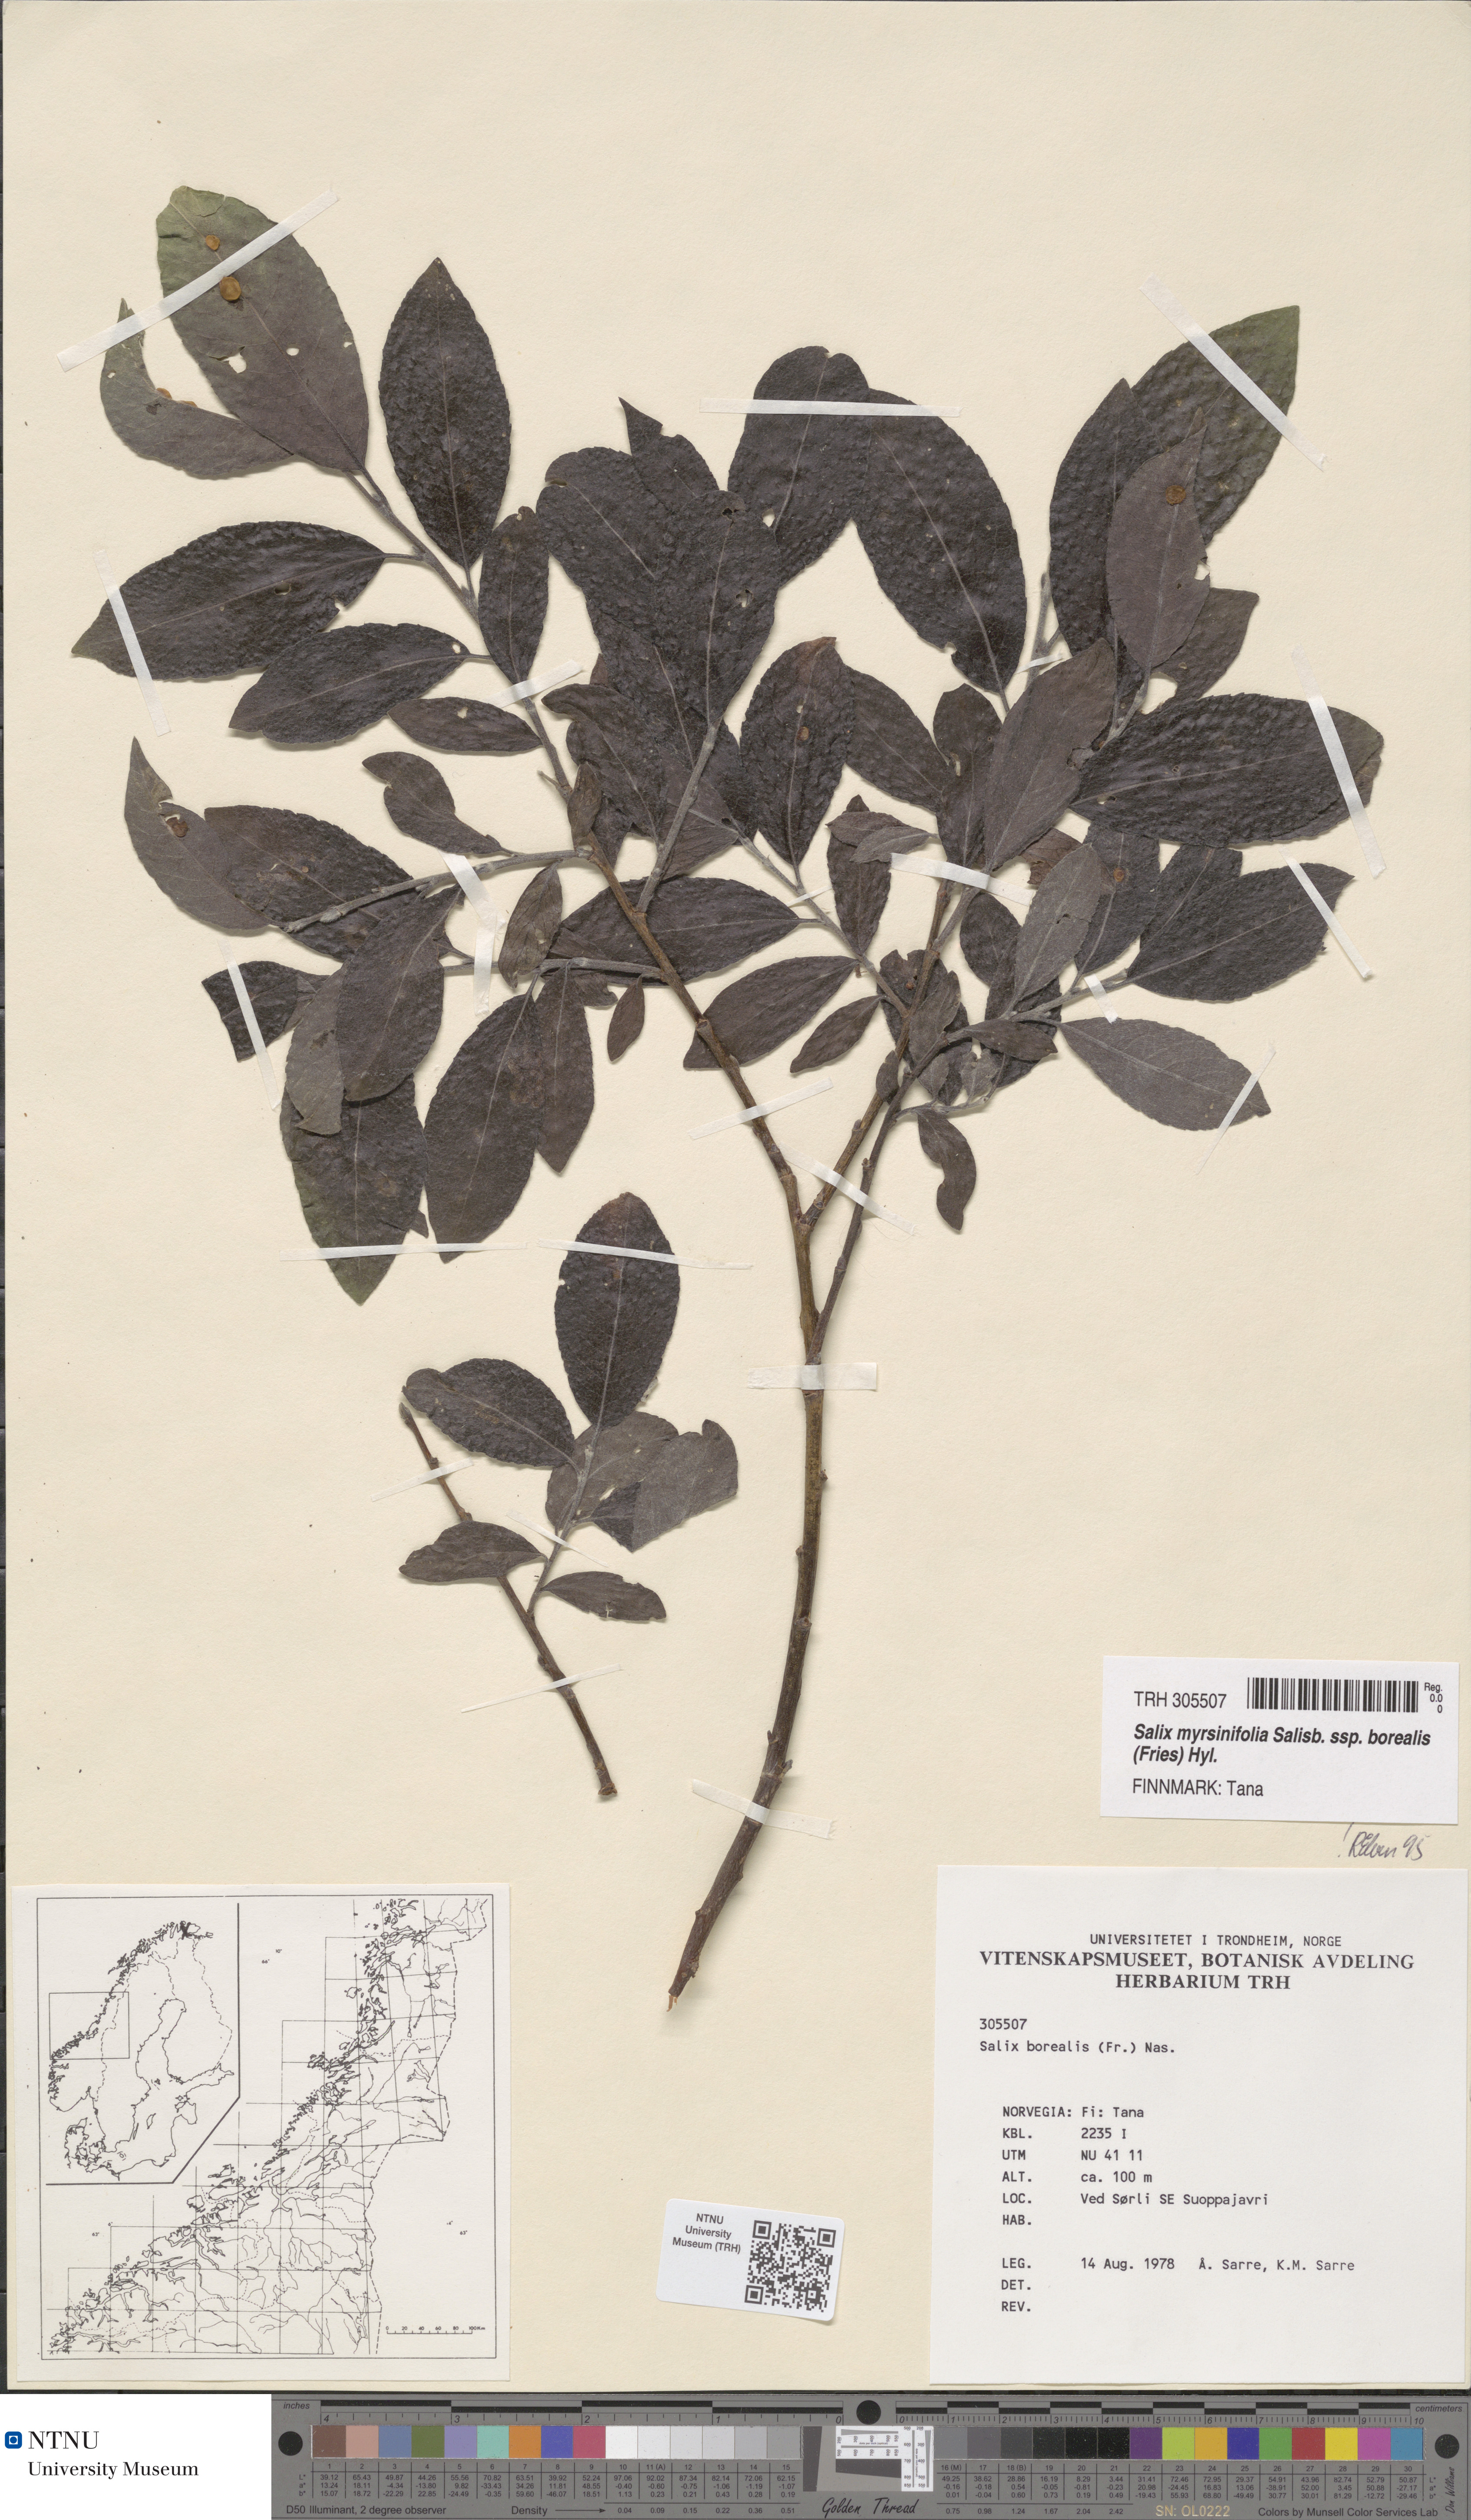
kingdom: Plantae
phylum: Tracheophyta
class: Magnoliopsida
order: Malpighiales
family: Salicaceae
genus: Salix
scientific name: Salix myrsinifolia
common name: Dark-leaved willow
